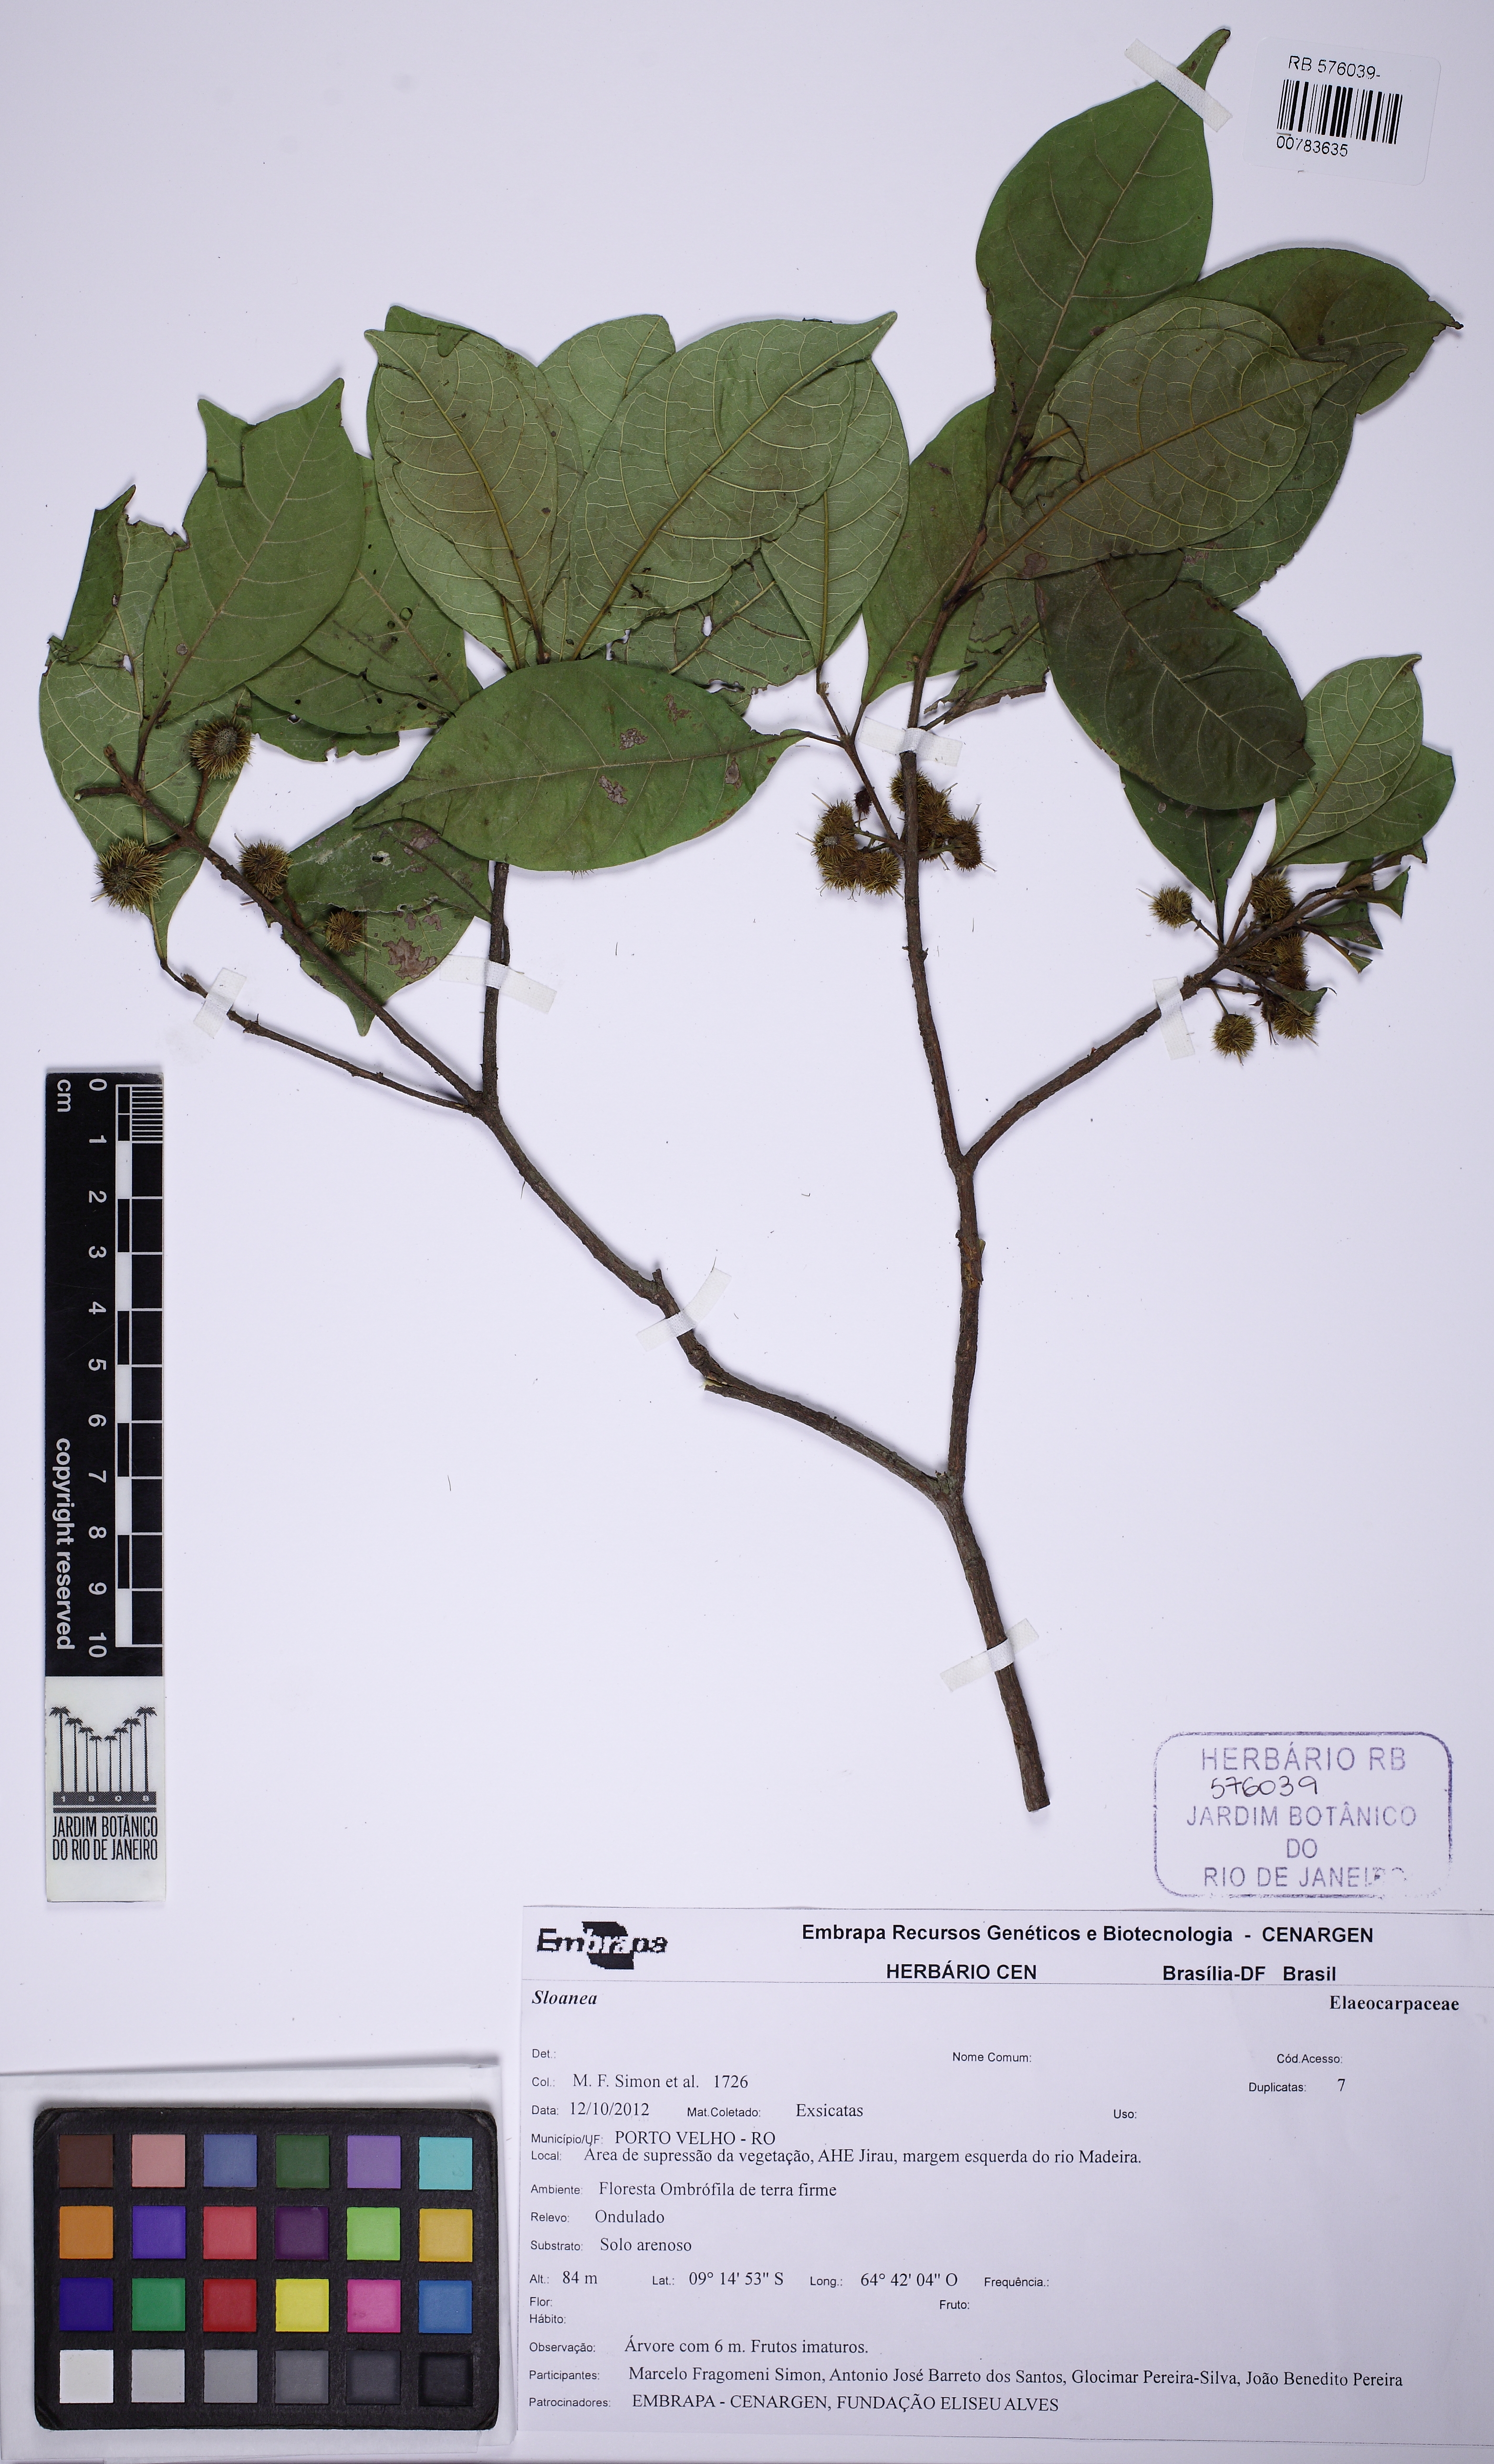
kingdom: Plantae
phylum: Tracheophyta
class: Magnoliopsida
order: Oxalidales
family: Elaeocarpaceae
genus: Sloanea
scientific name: Sloanea
